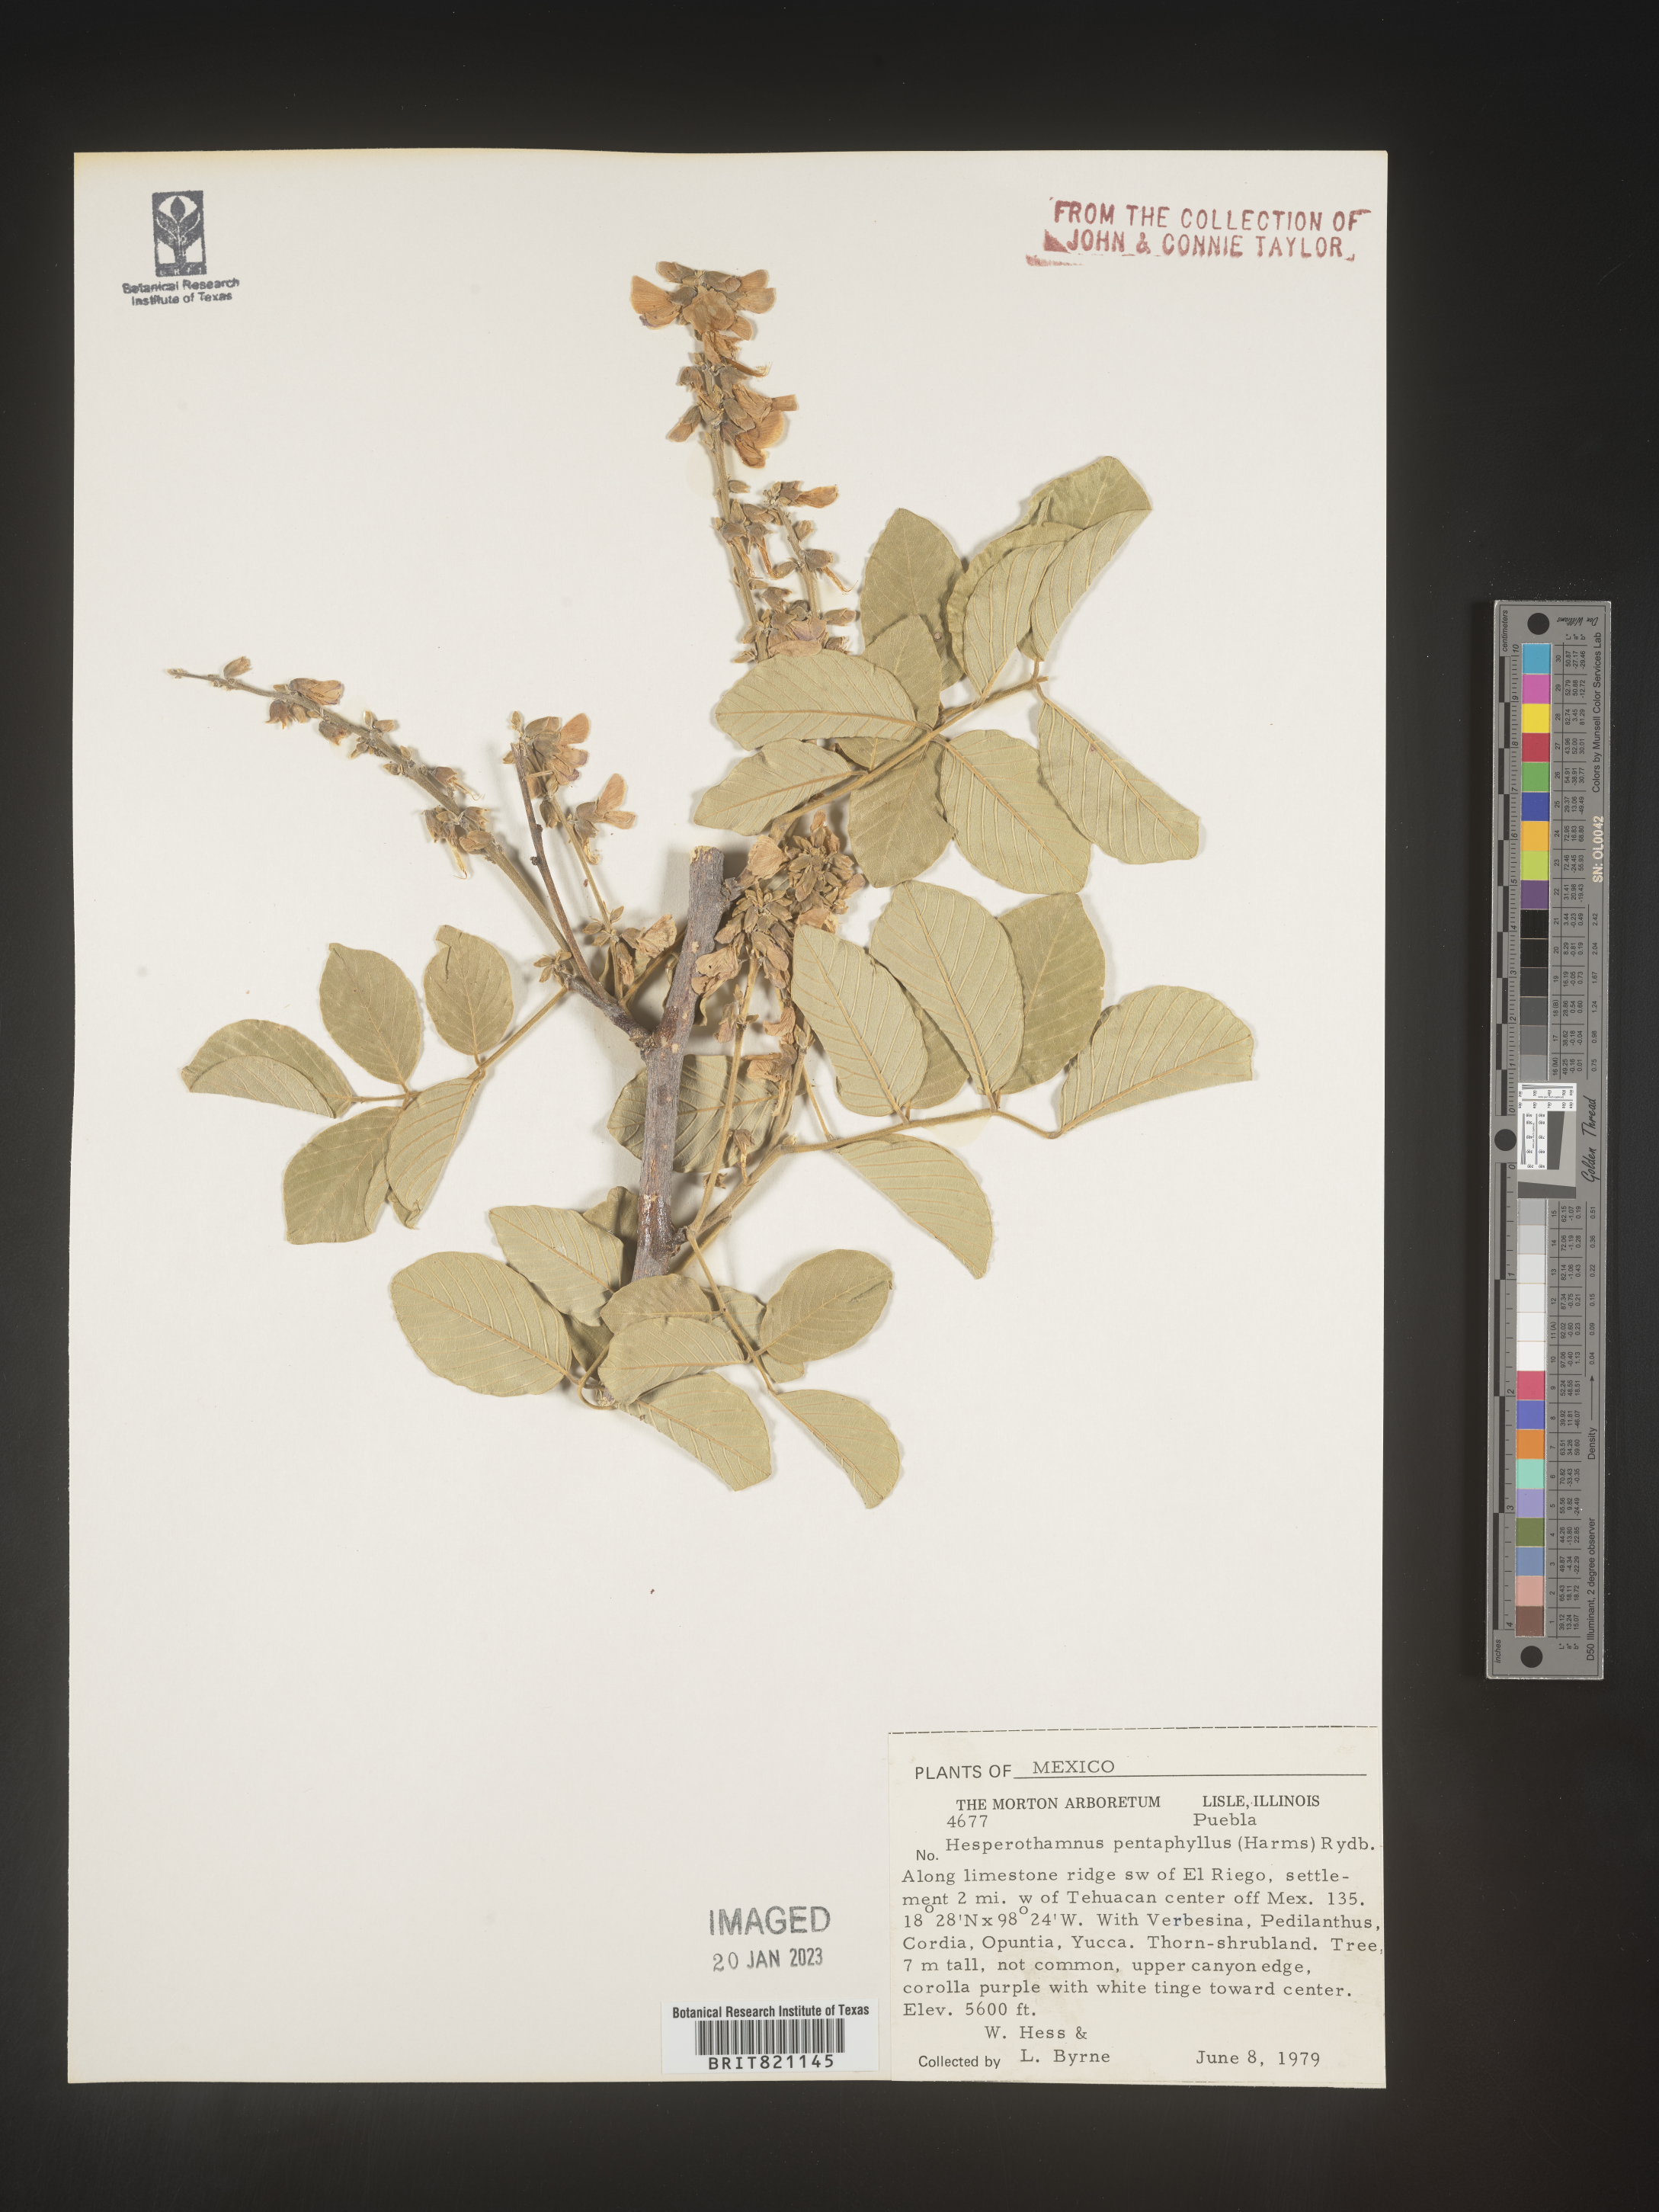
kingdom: Plantae
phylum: Tracheophyta
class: Magnoliopsida
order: Fabales
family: Fabaceae
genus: Hesperothamnus
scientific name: Hesperothamnus
